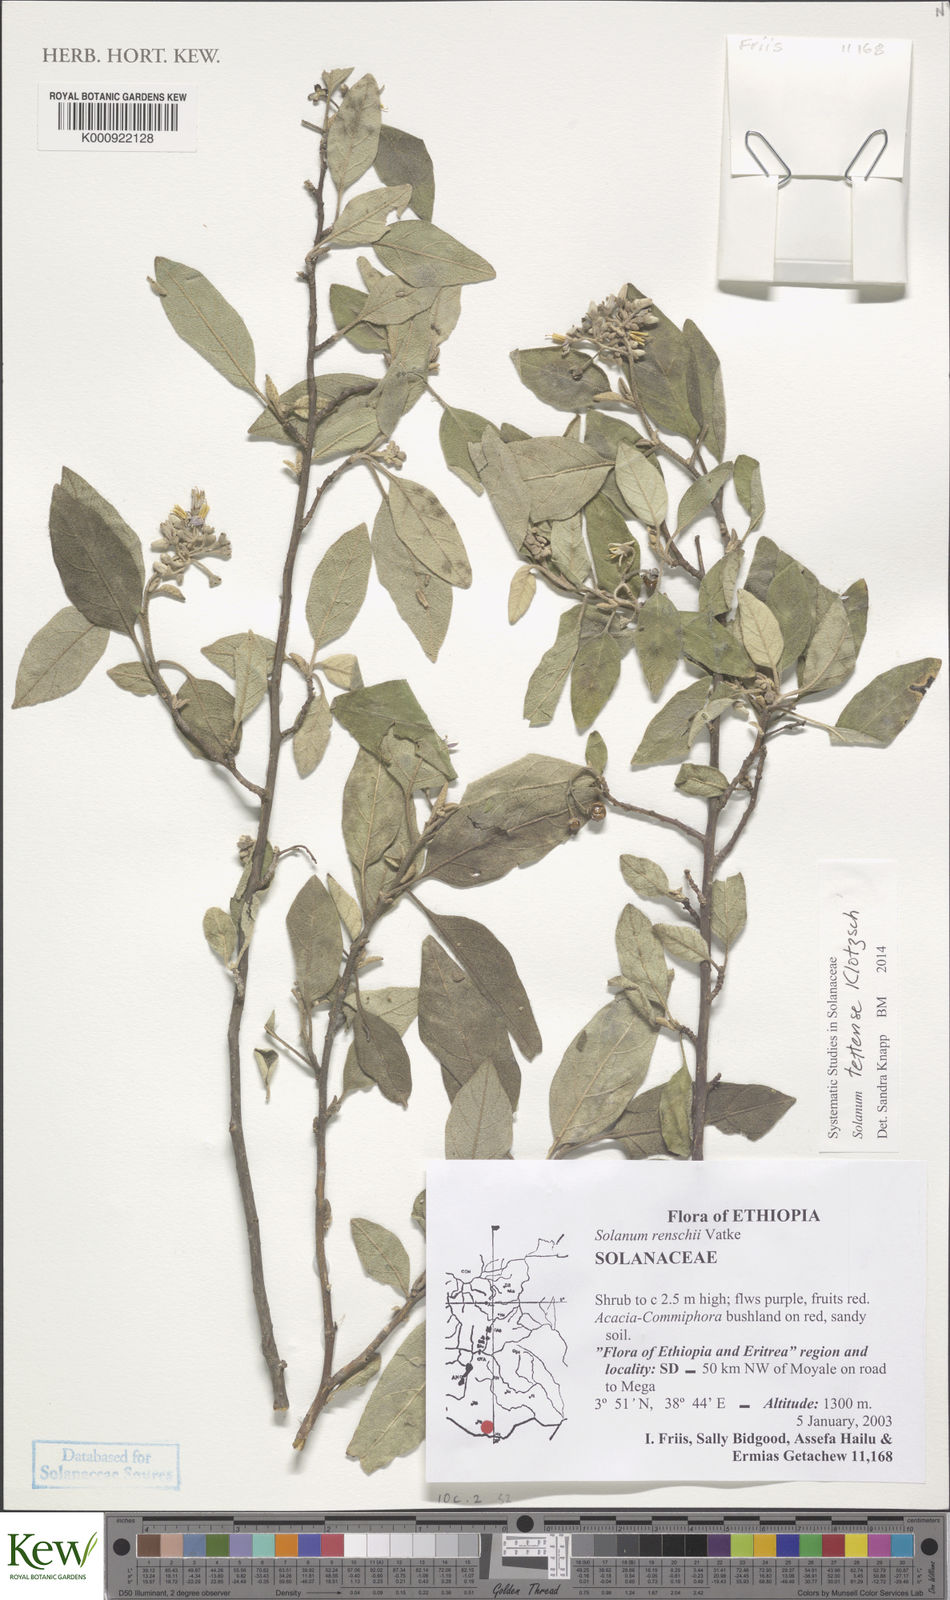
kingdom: Plantae
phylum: Tracheophyta
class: Magnoliopsida
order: Solanales
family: Solanaceae
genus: Solanum
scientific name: Solanum tettense
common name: Mozambique bitter apple
